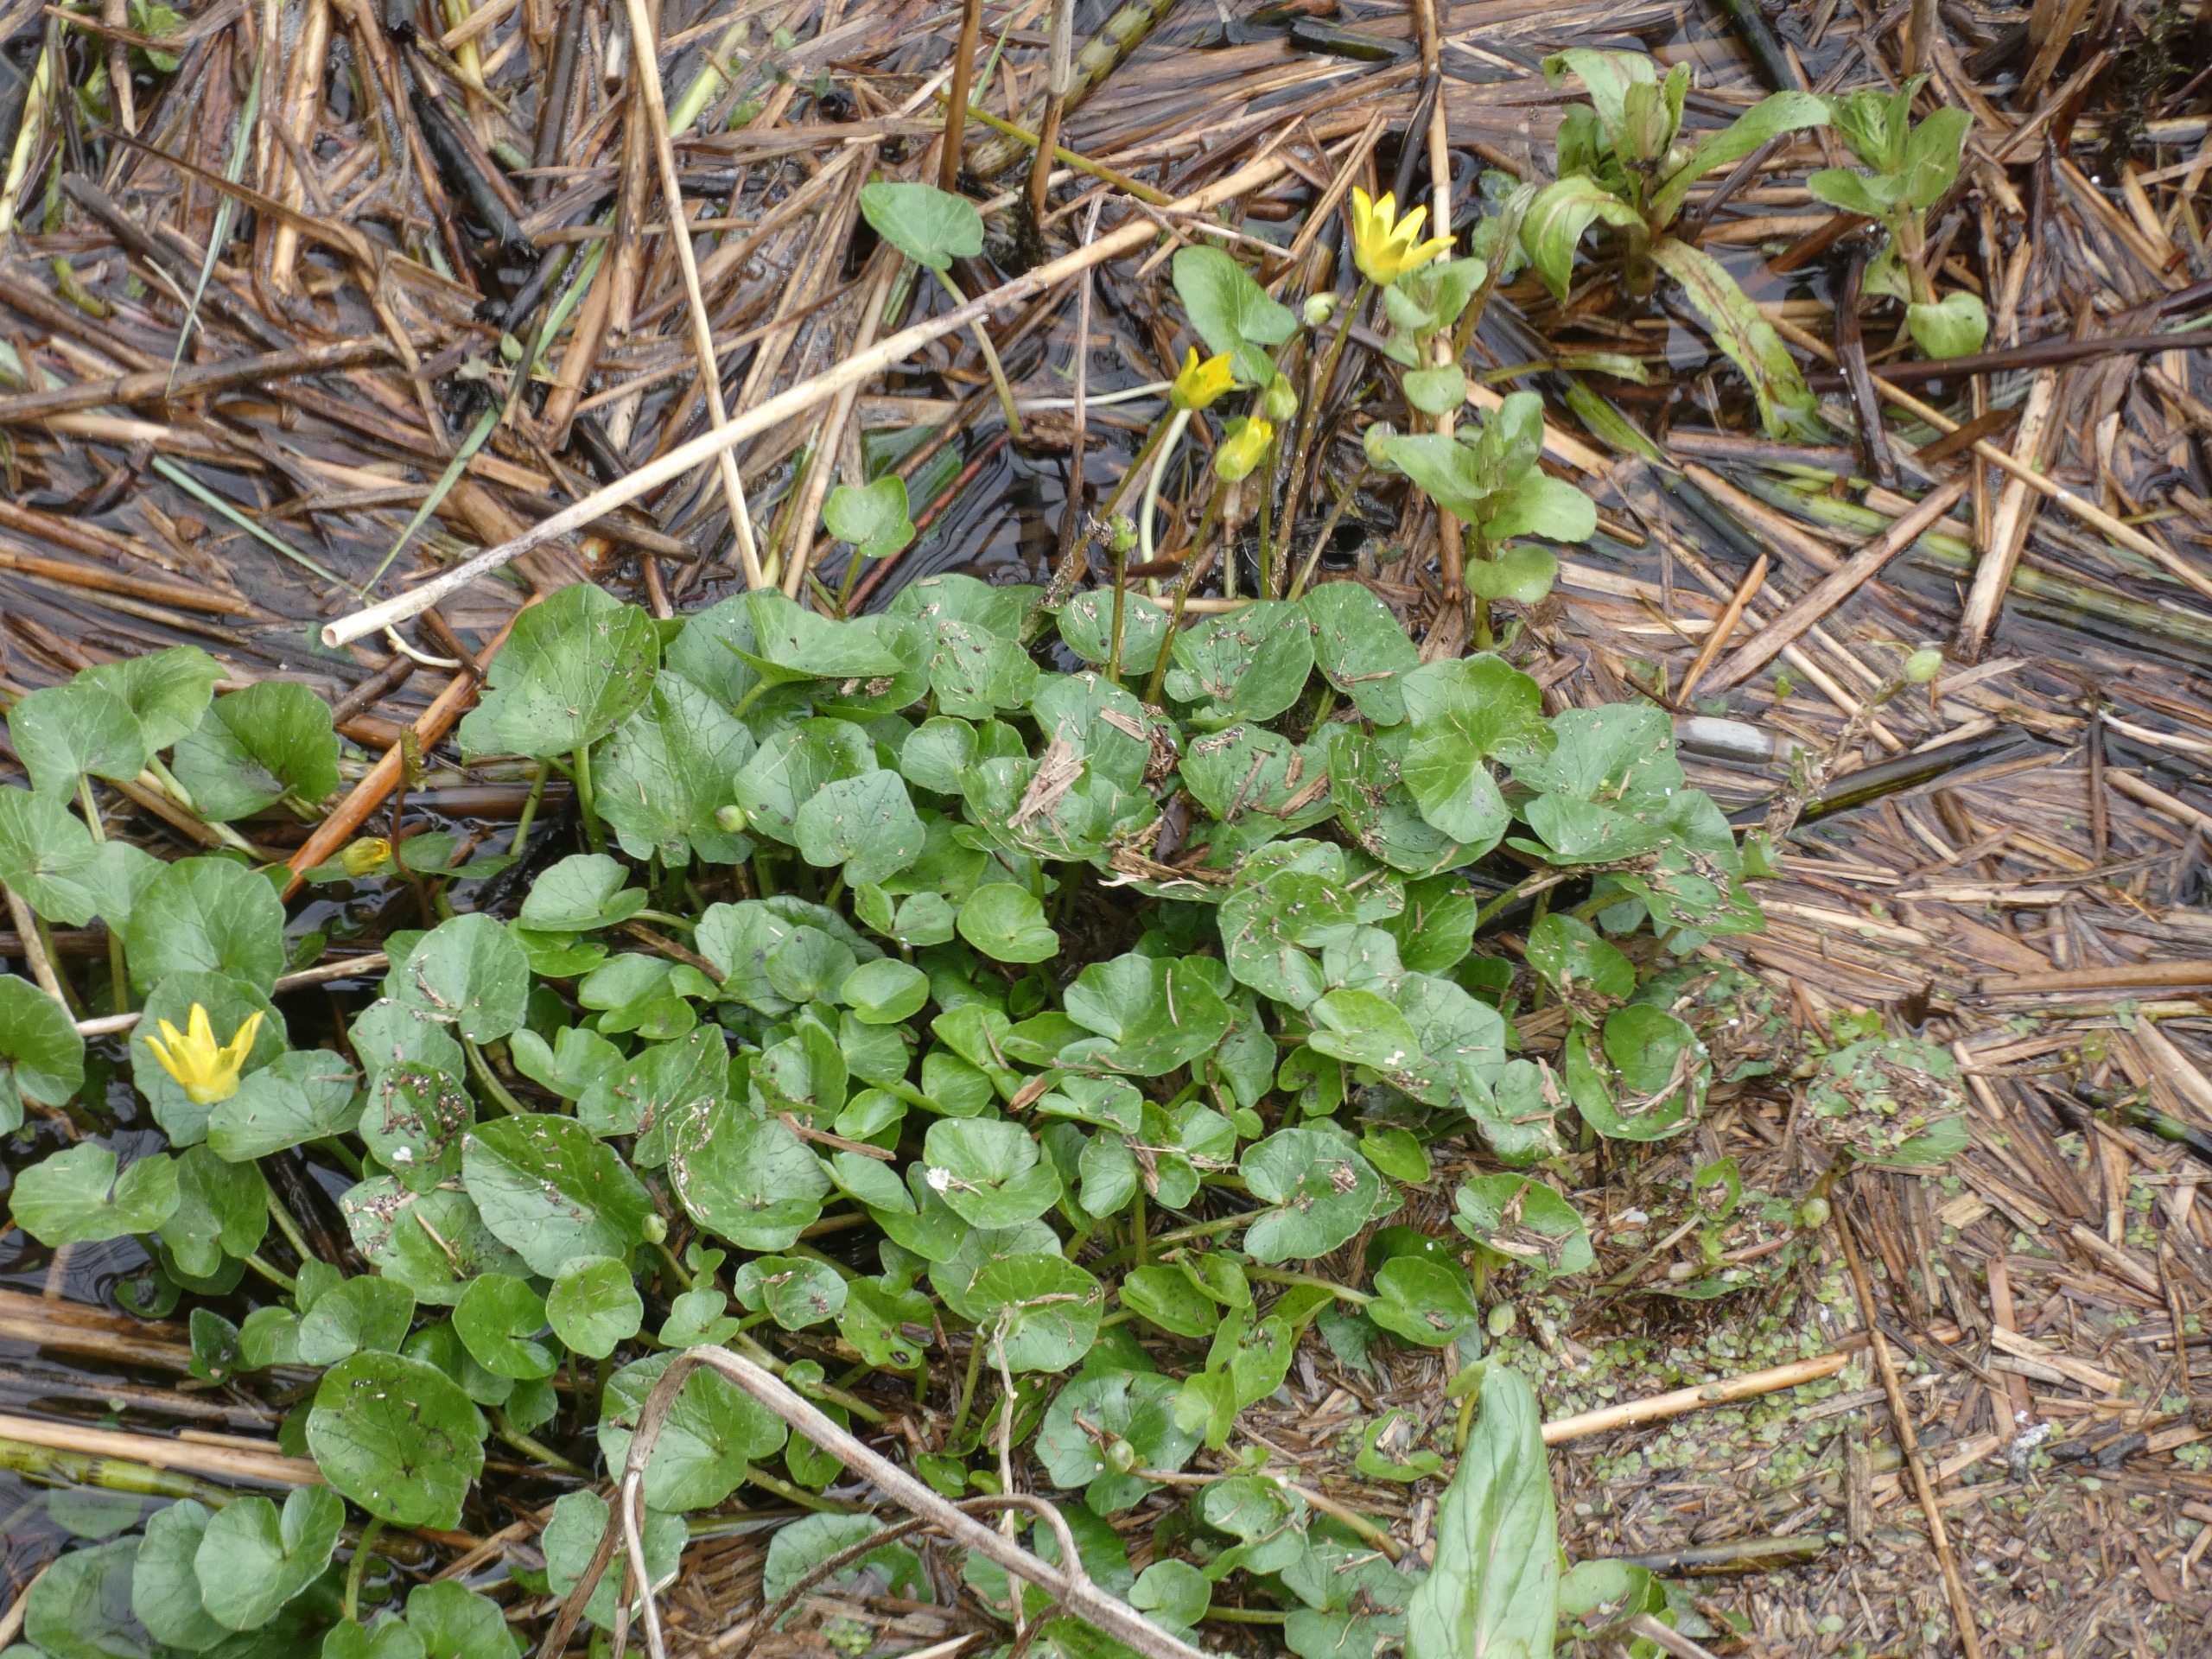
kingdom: Plantae
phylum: Tracheophyta
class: Magnoliopsida
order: Ranunculales
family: Ranunculaceae
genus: Ficaria
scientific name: Ficaria verna
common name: Vorterod
